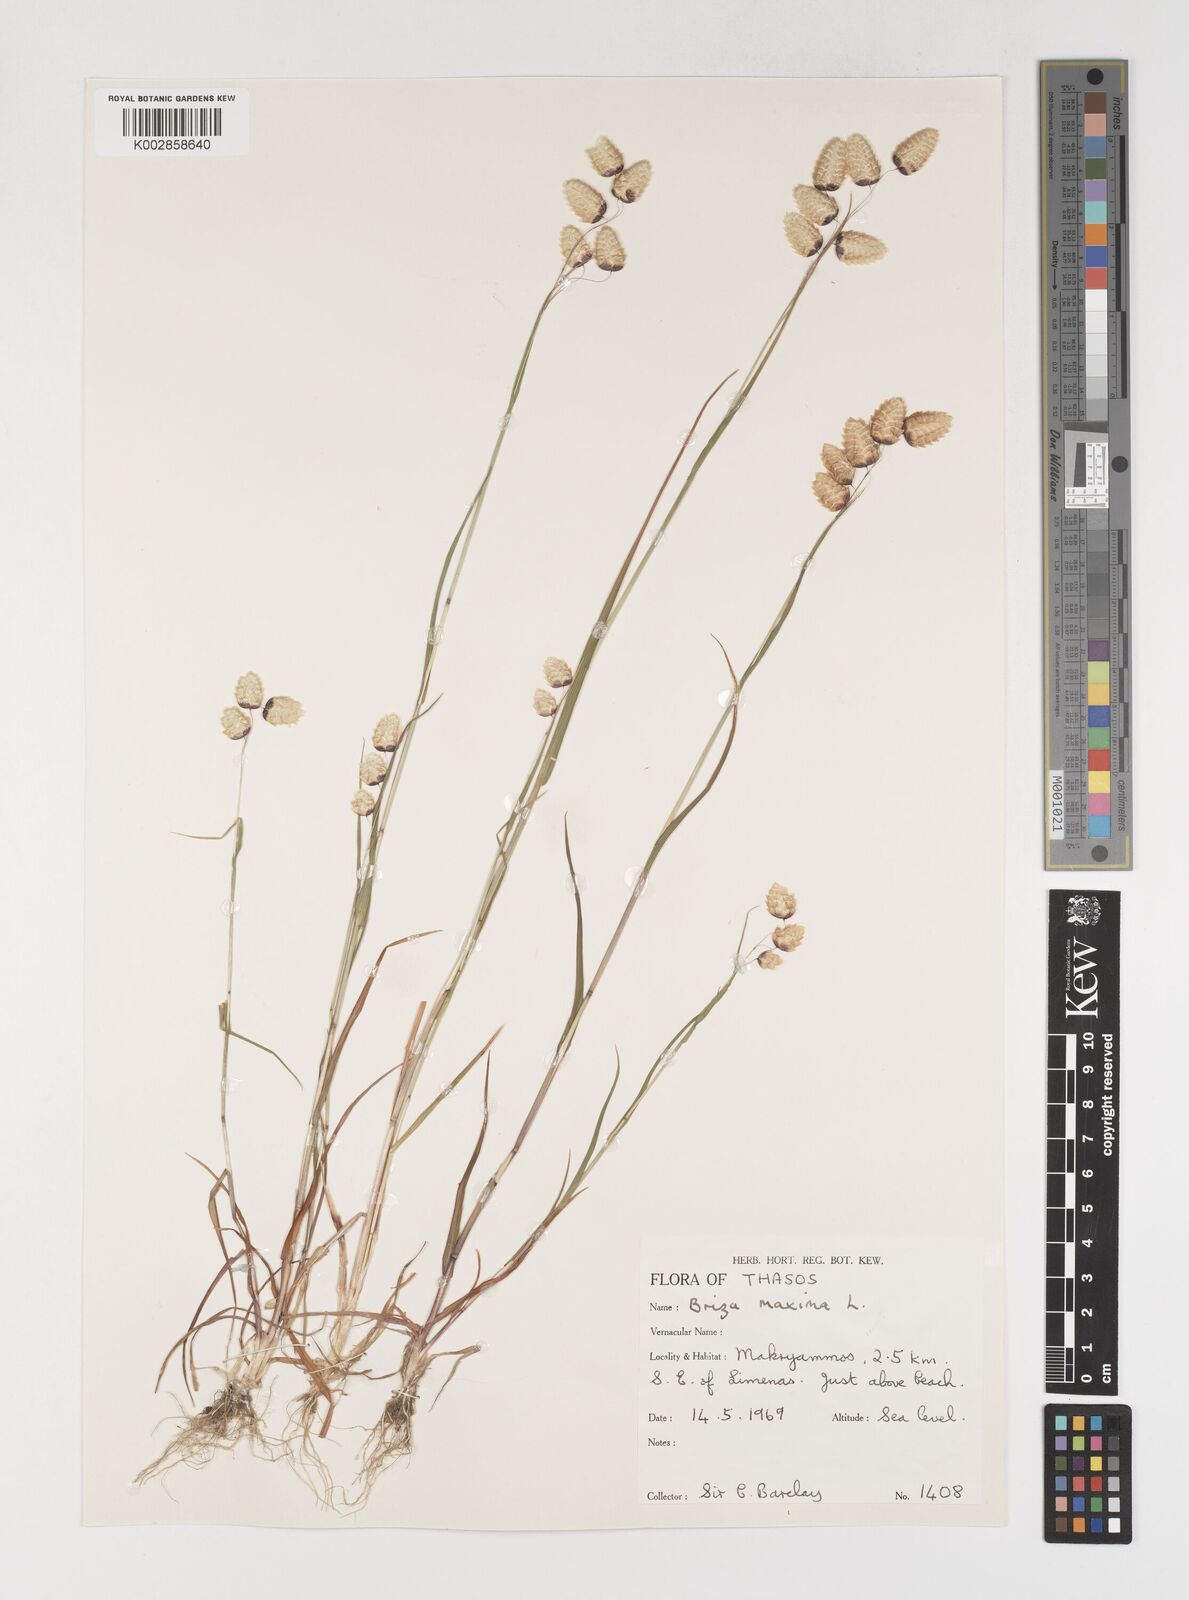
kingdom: Plantae
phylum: Tracheophyta
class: Liliopsida
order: Poales
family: Poaceae
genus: Briza
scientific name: Briza maxima
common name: Big quakinggrass
